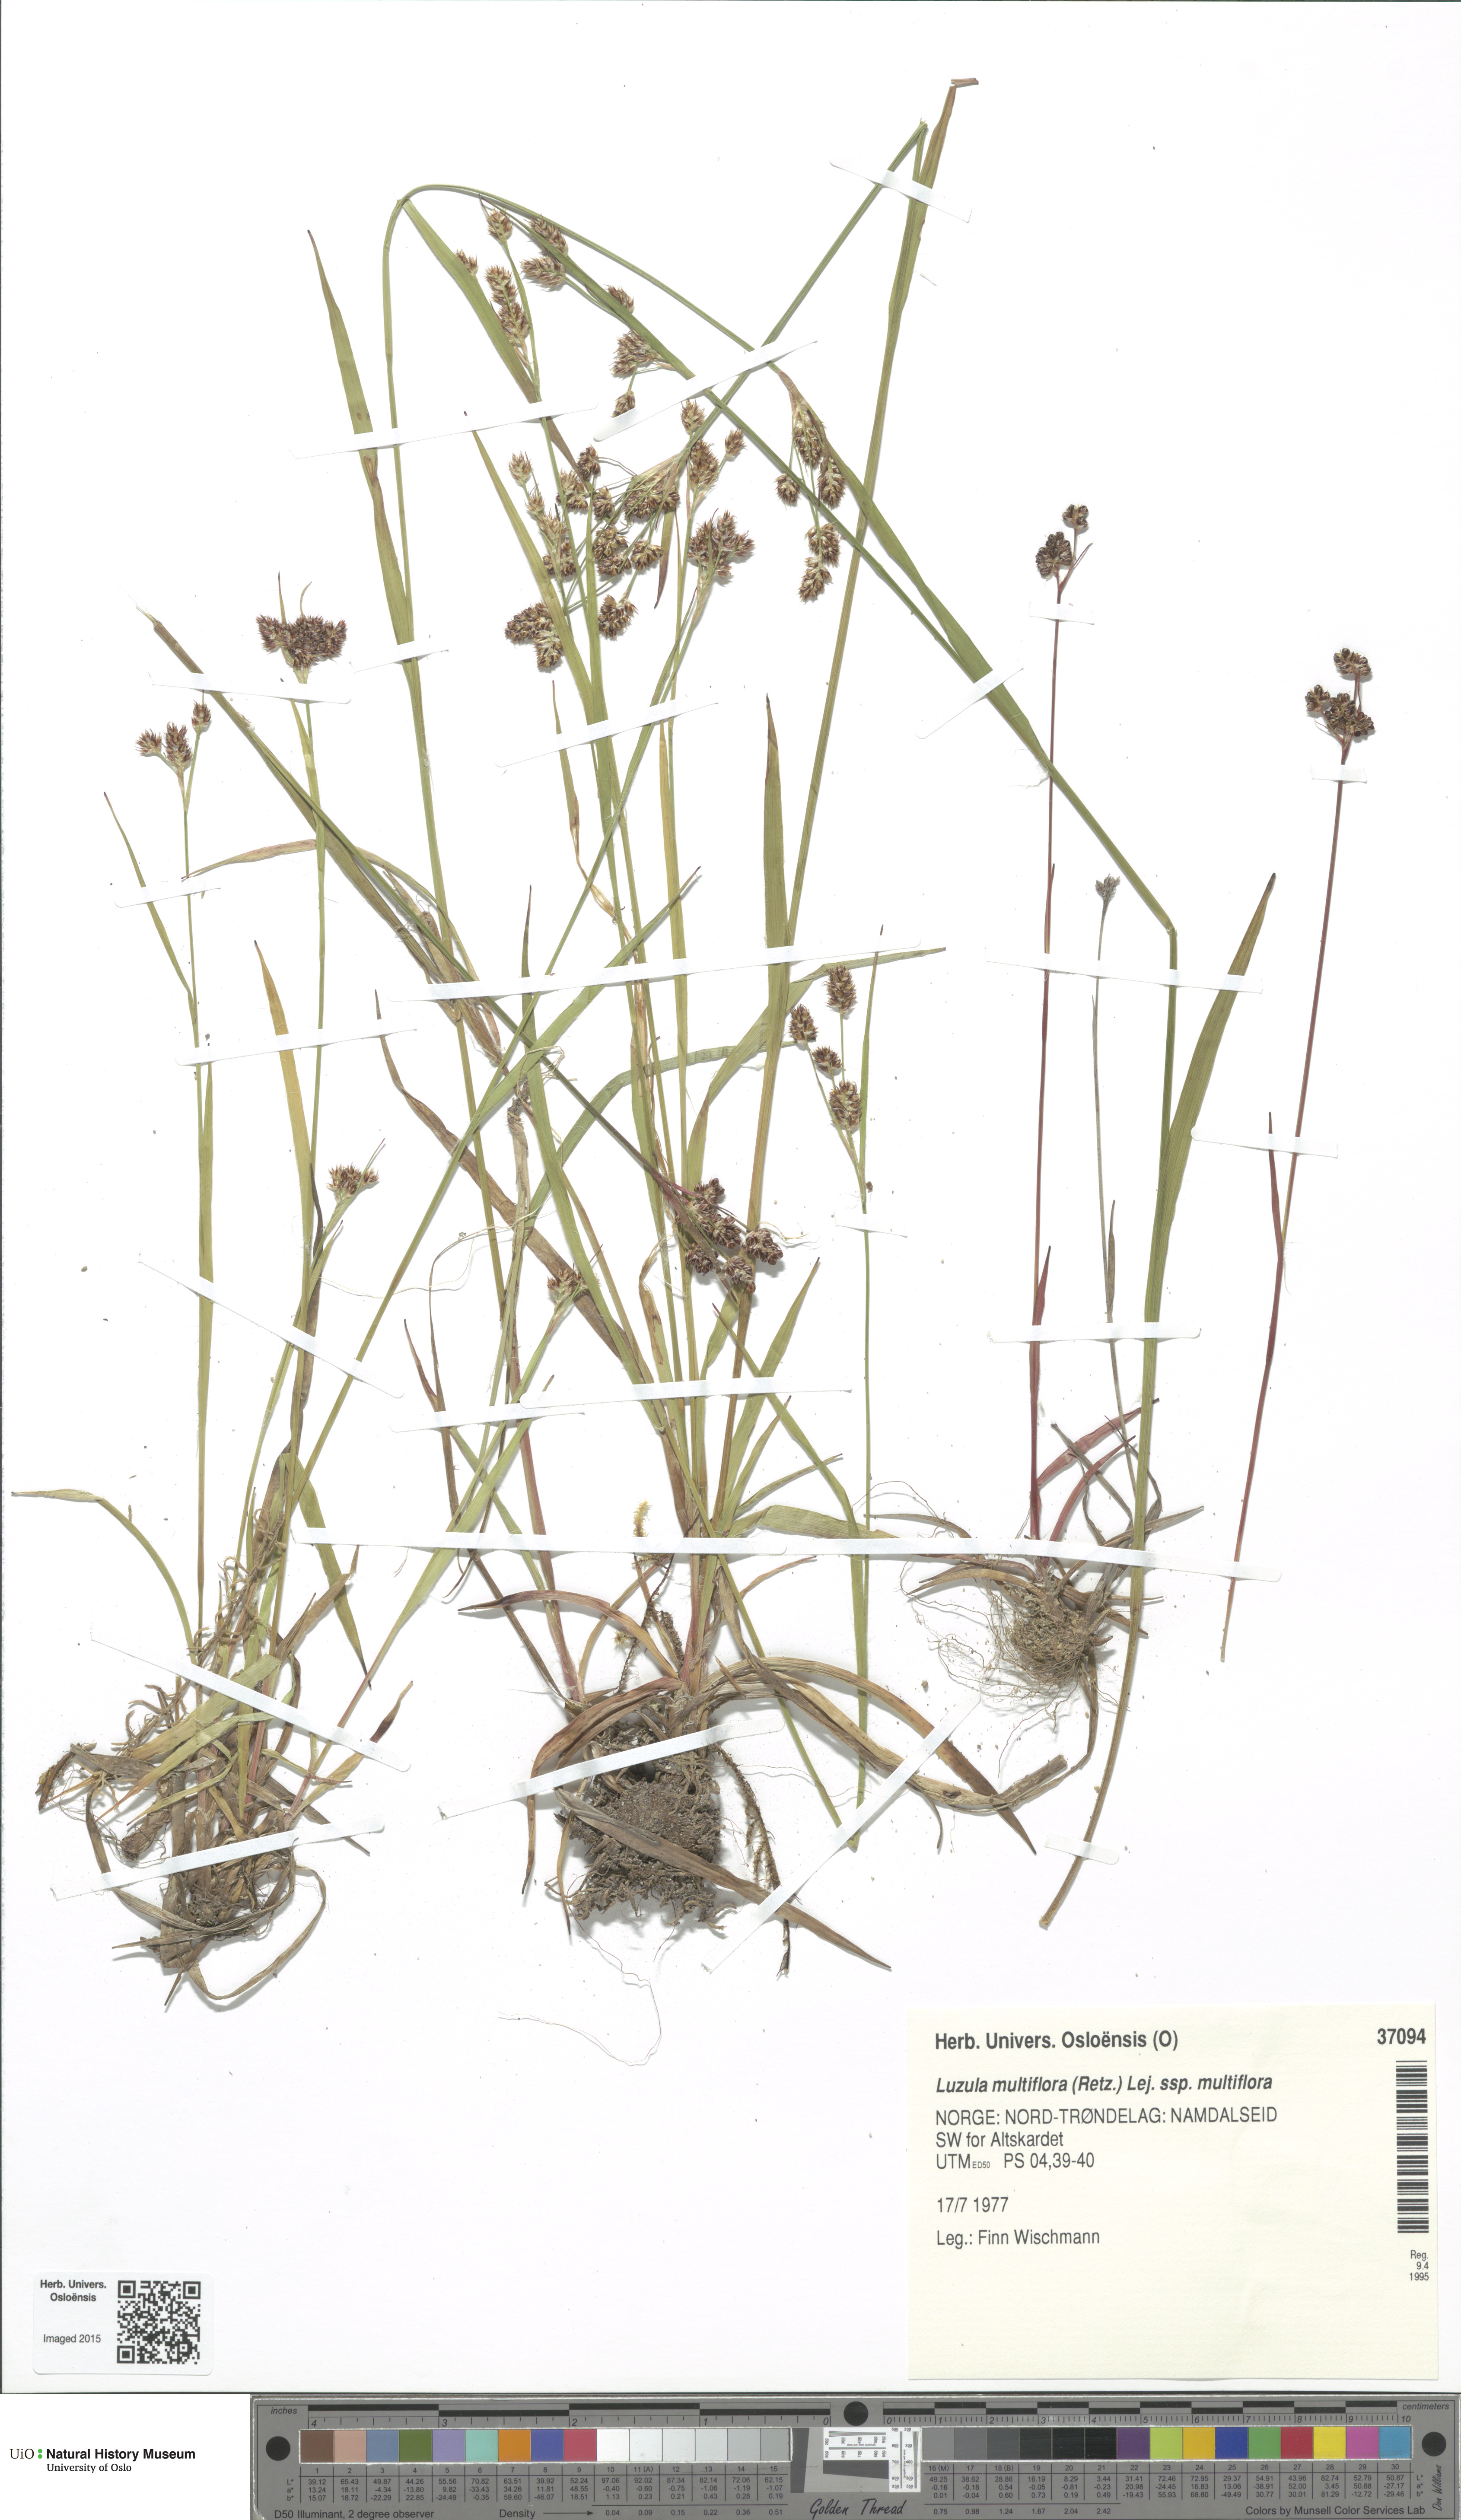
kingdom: Plantae
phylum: Tracheophyta
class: Liliopsida
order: Poales
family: Juncaceae
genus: Luzula
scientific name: Luzula multiflora
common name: Heath wood-rush
